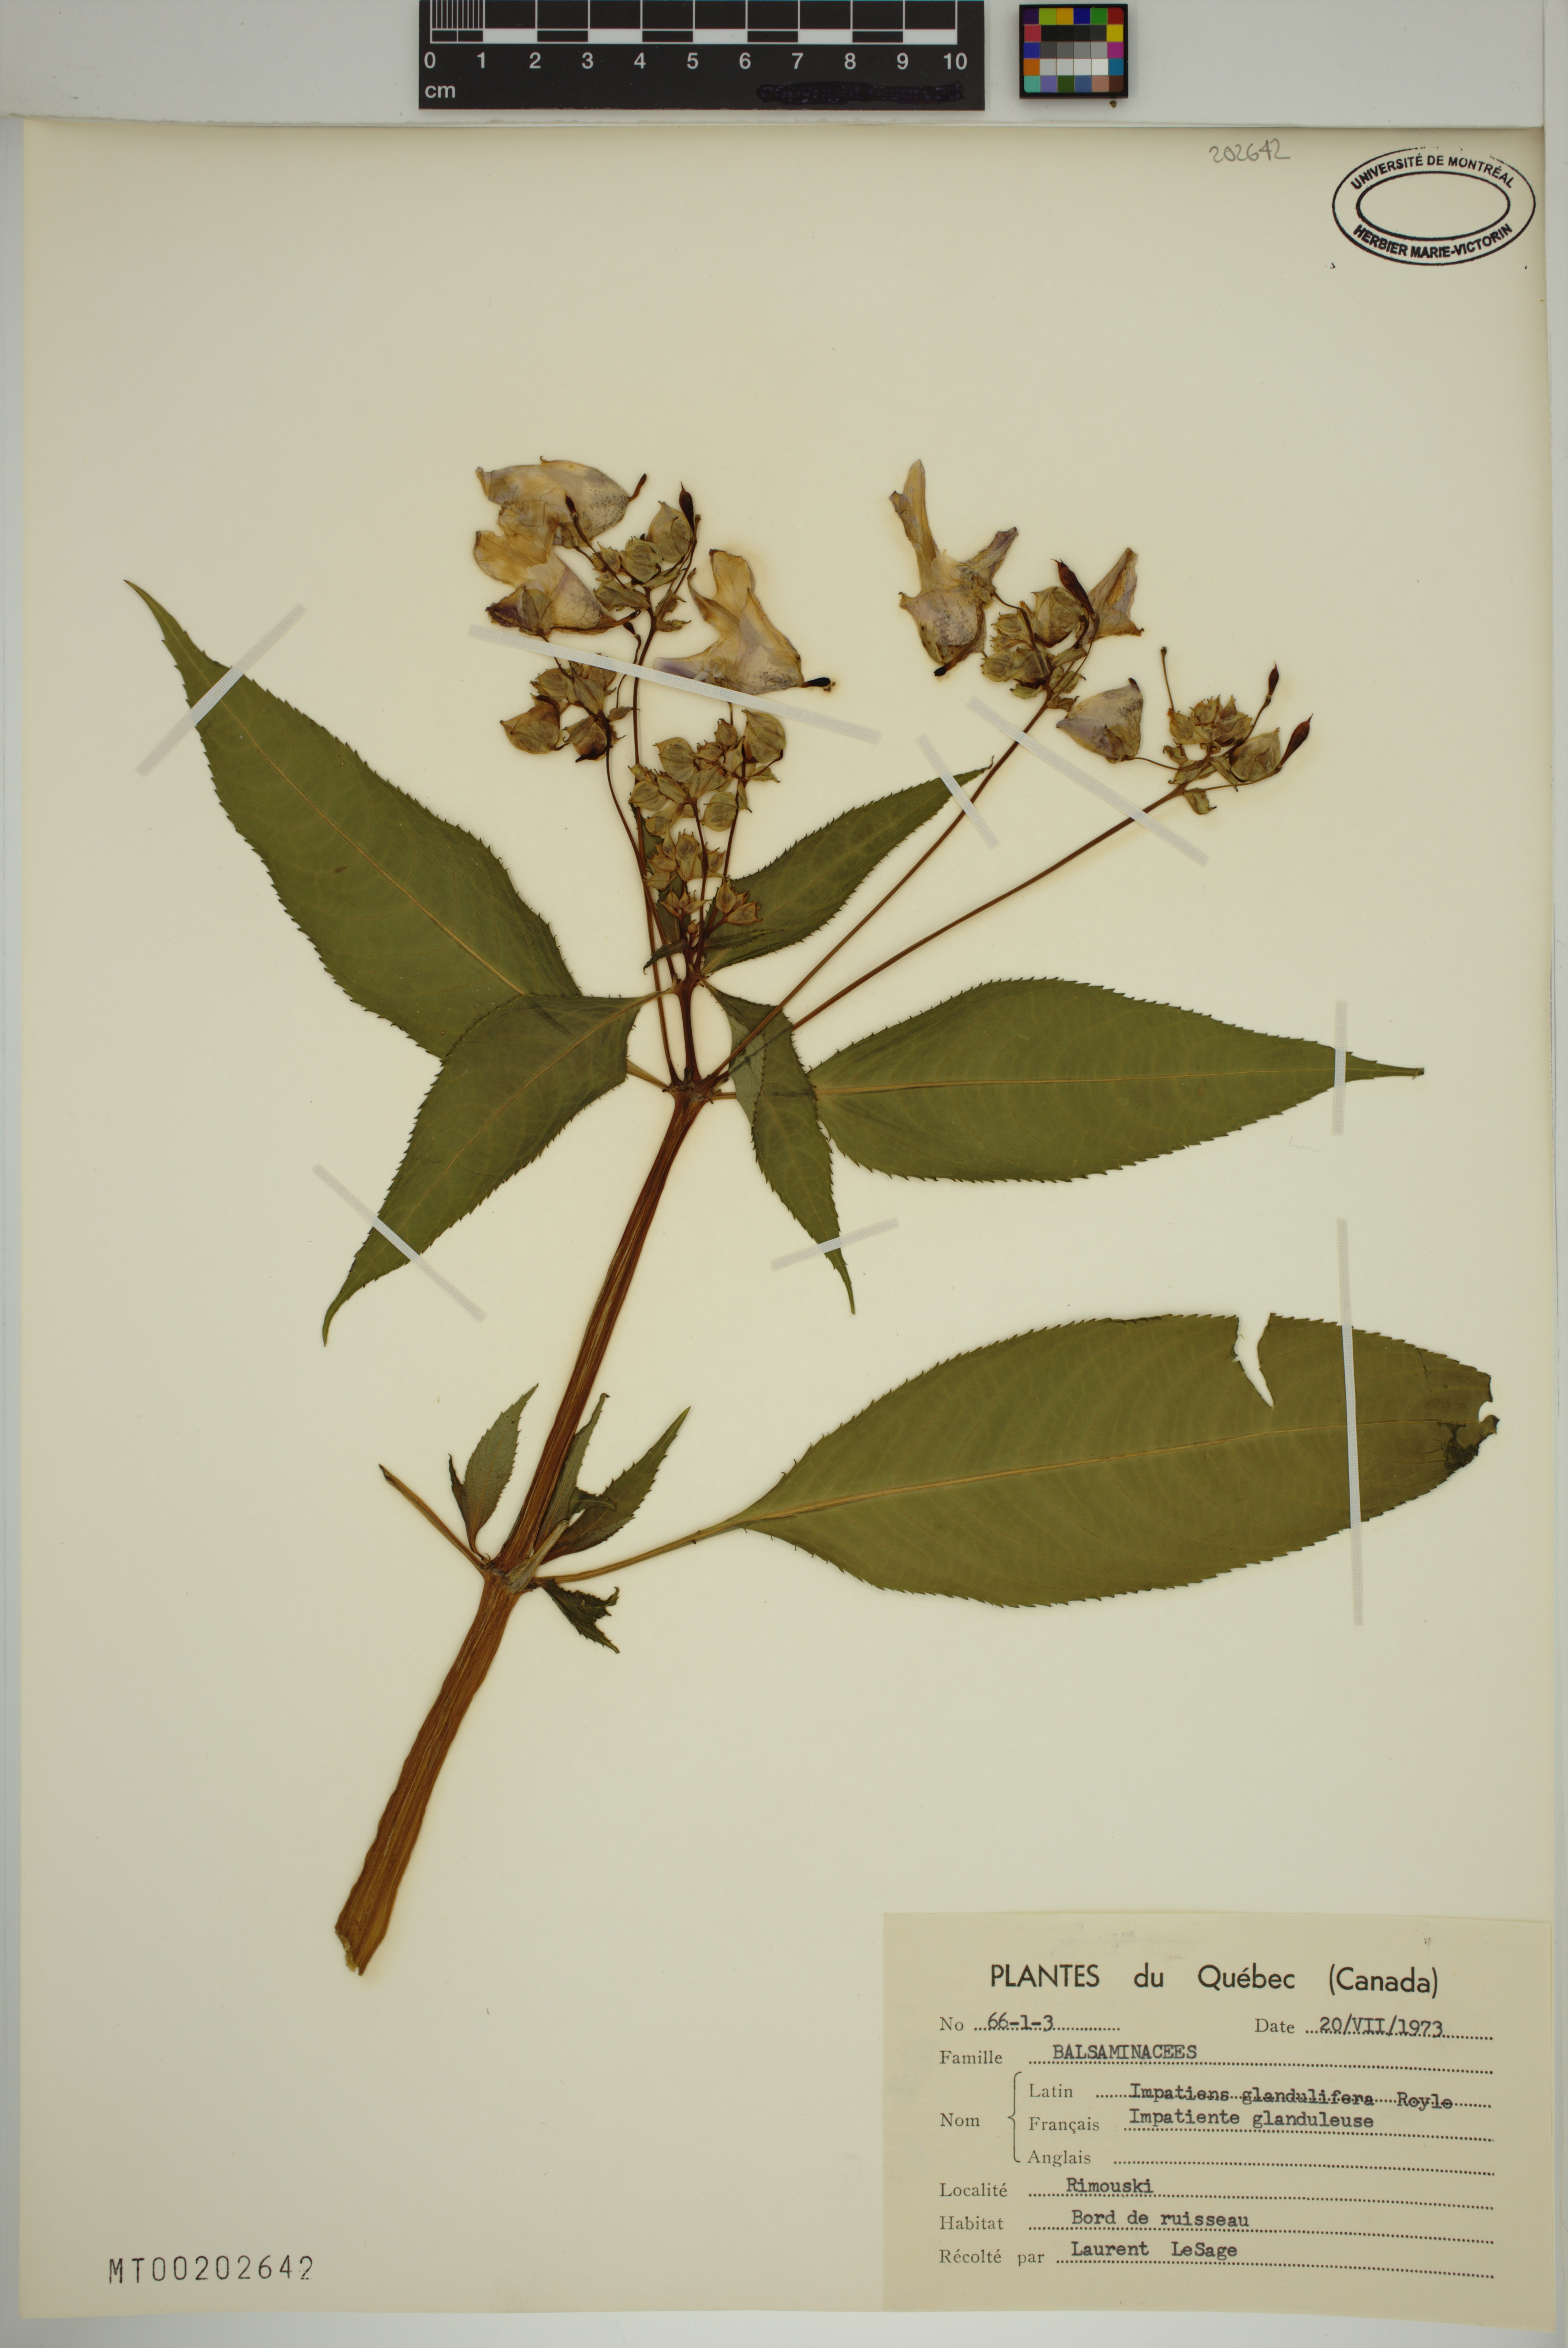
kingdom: Plantae
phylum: Tracheophyta
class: Magnoliopsida
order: Ericales
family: Balsaminaceae
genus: Impatiens
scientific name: Impatiens glandulifera
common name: Himalayan balsam
